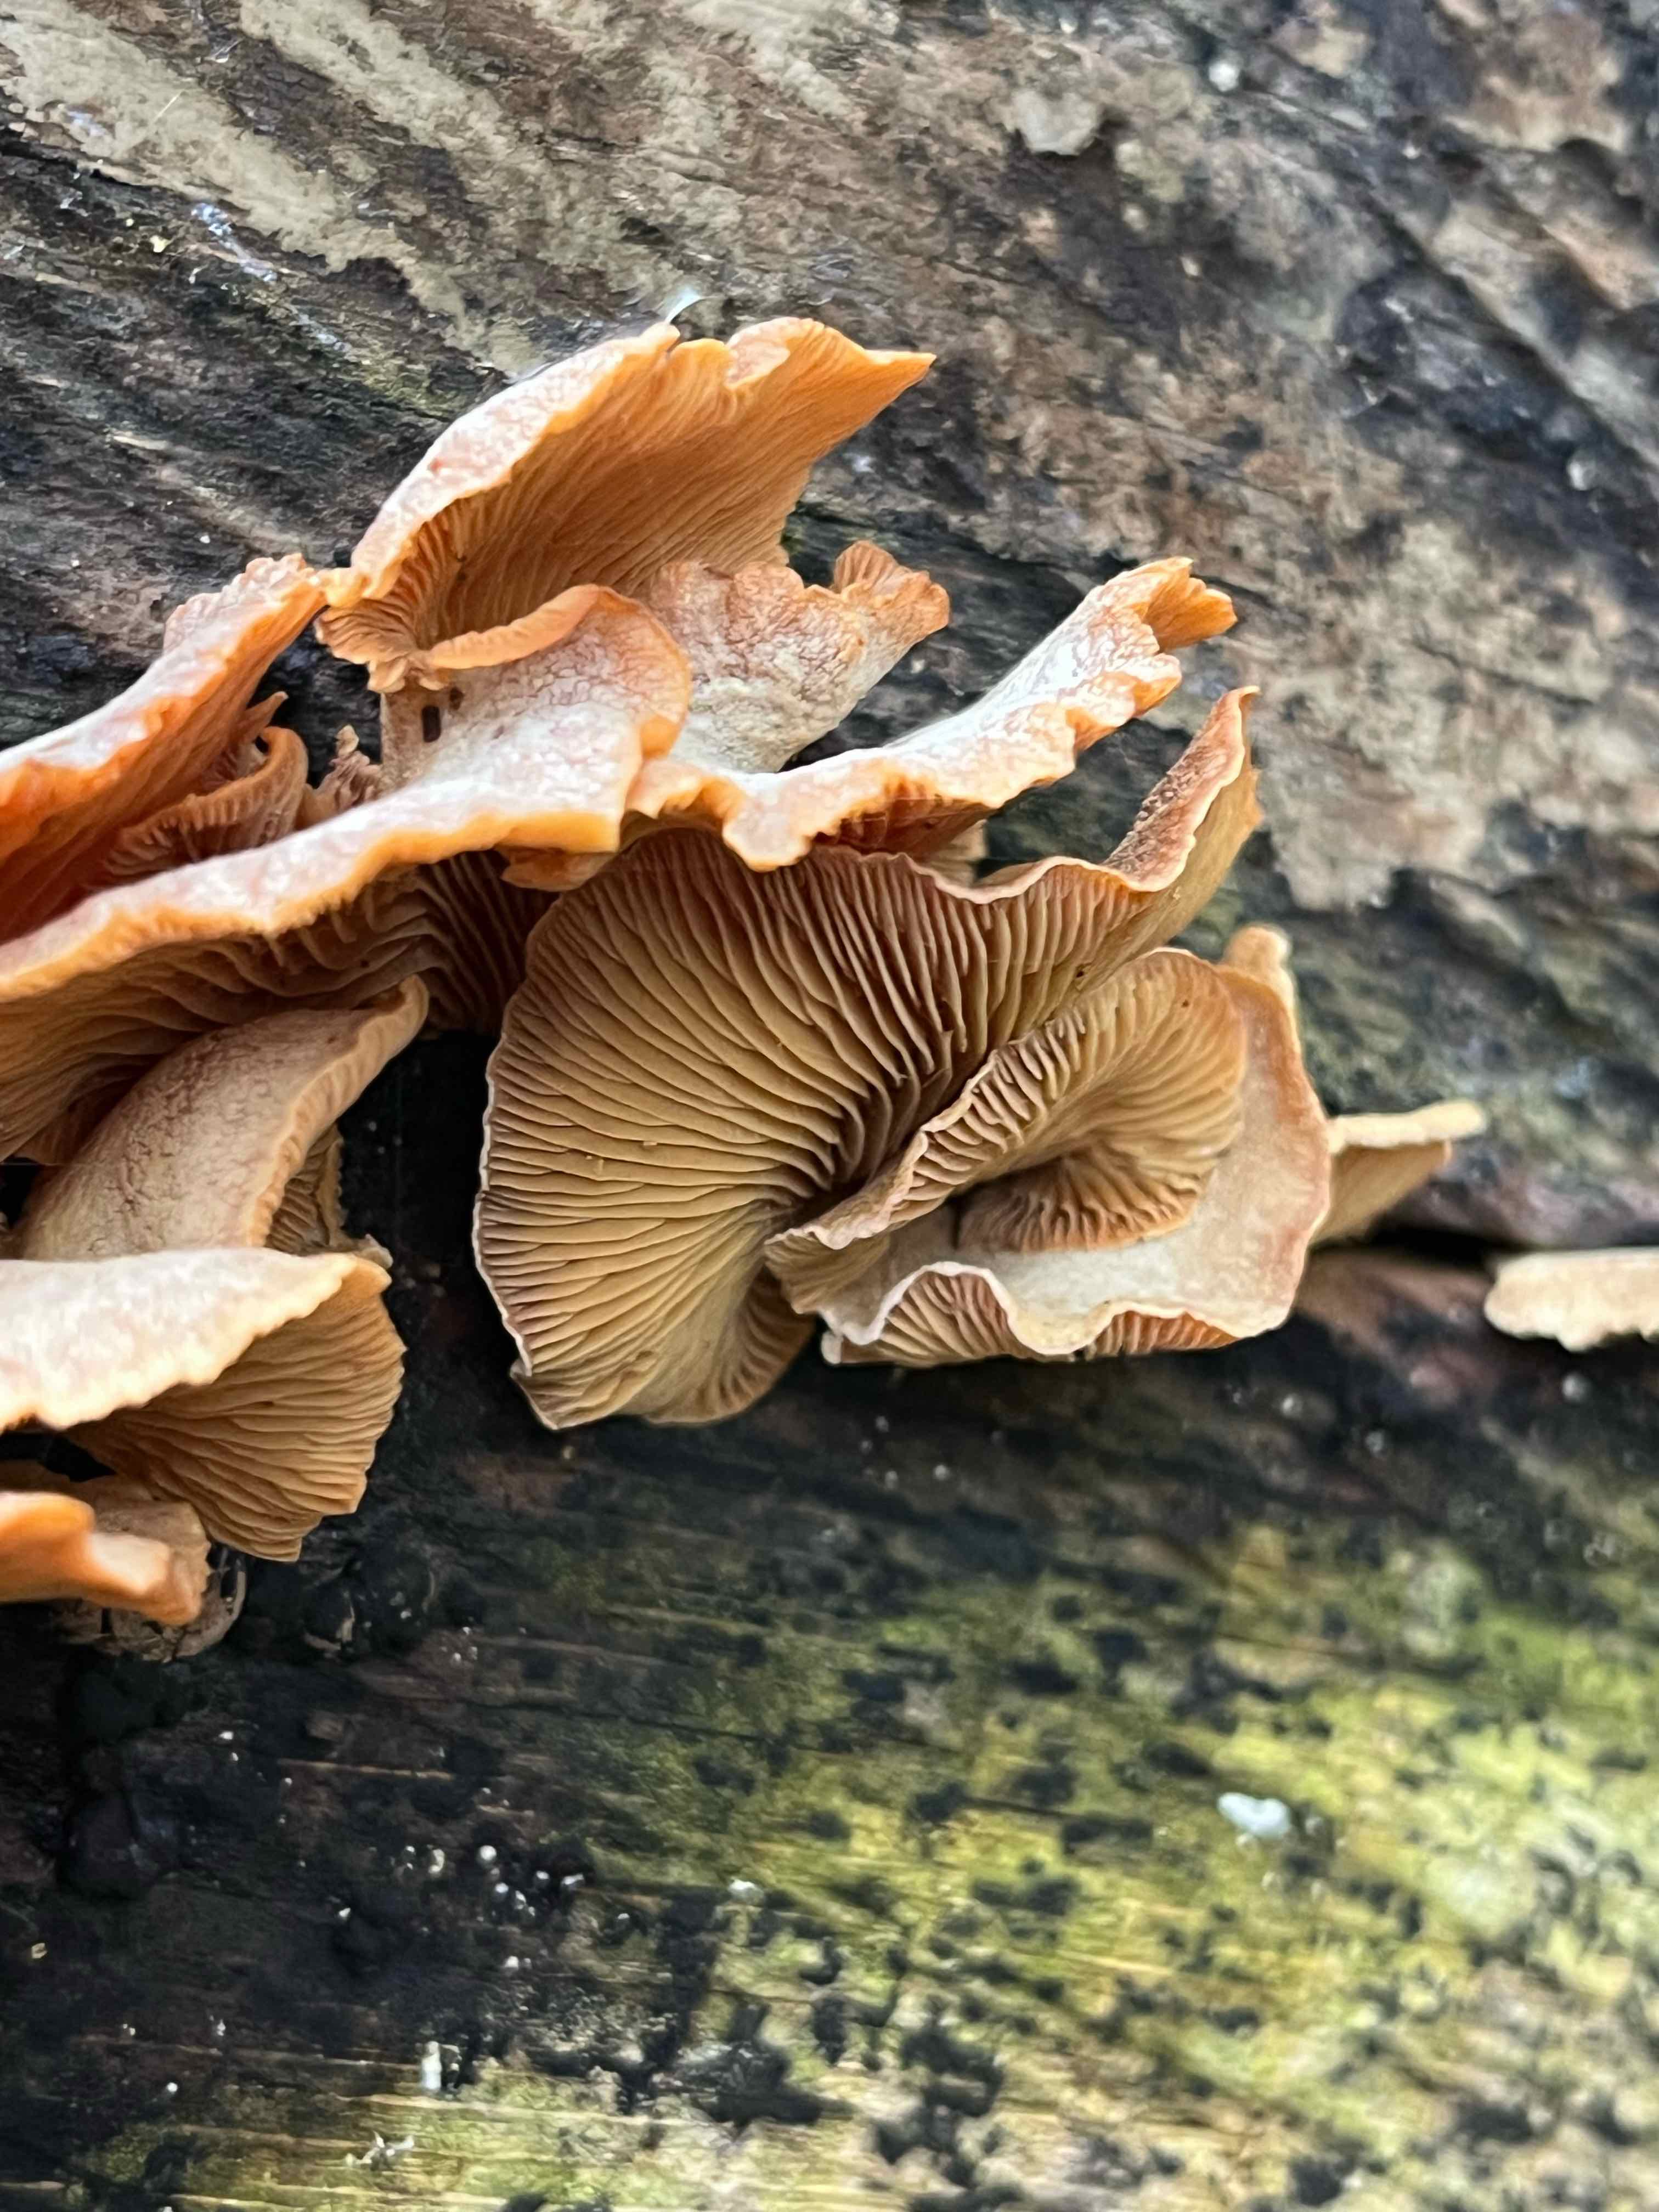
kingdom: Fungi
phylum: Basidiomycota
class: Agaricomycetes
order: Agaricales
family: Mycenaceae
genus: Panellus
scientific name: Panellus stipticus
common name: kliddet epaulethat
